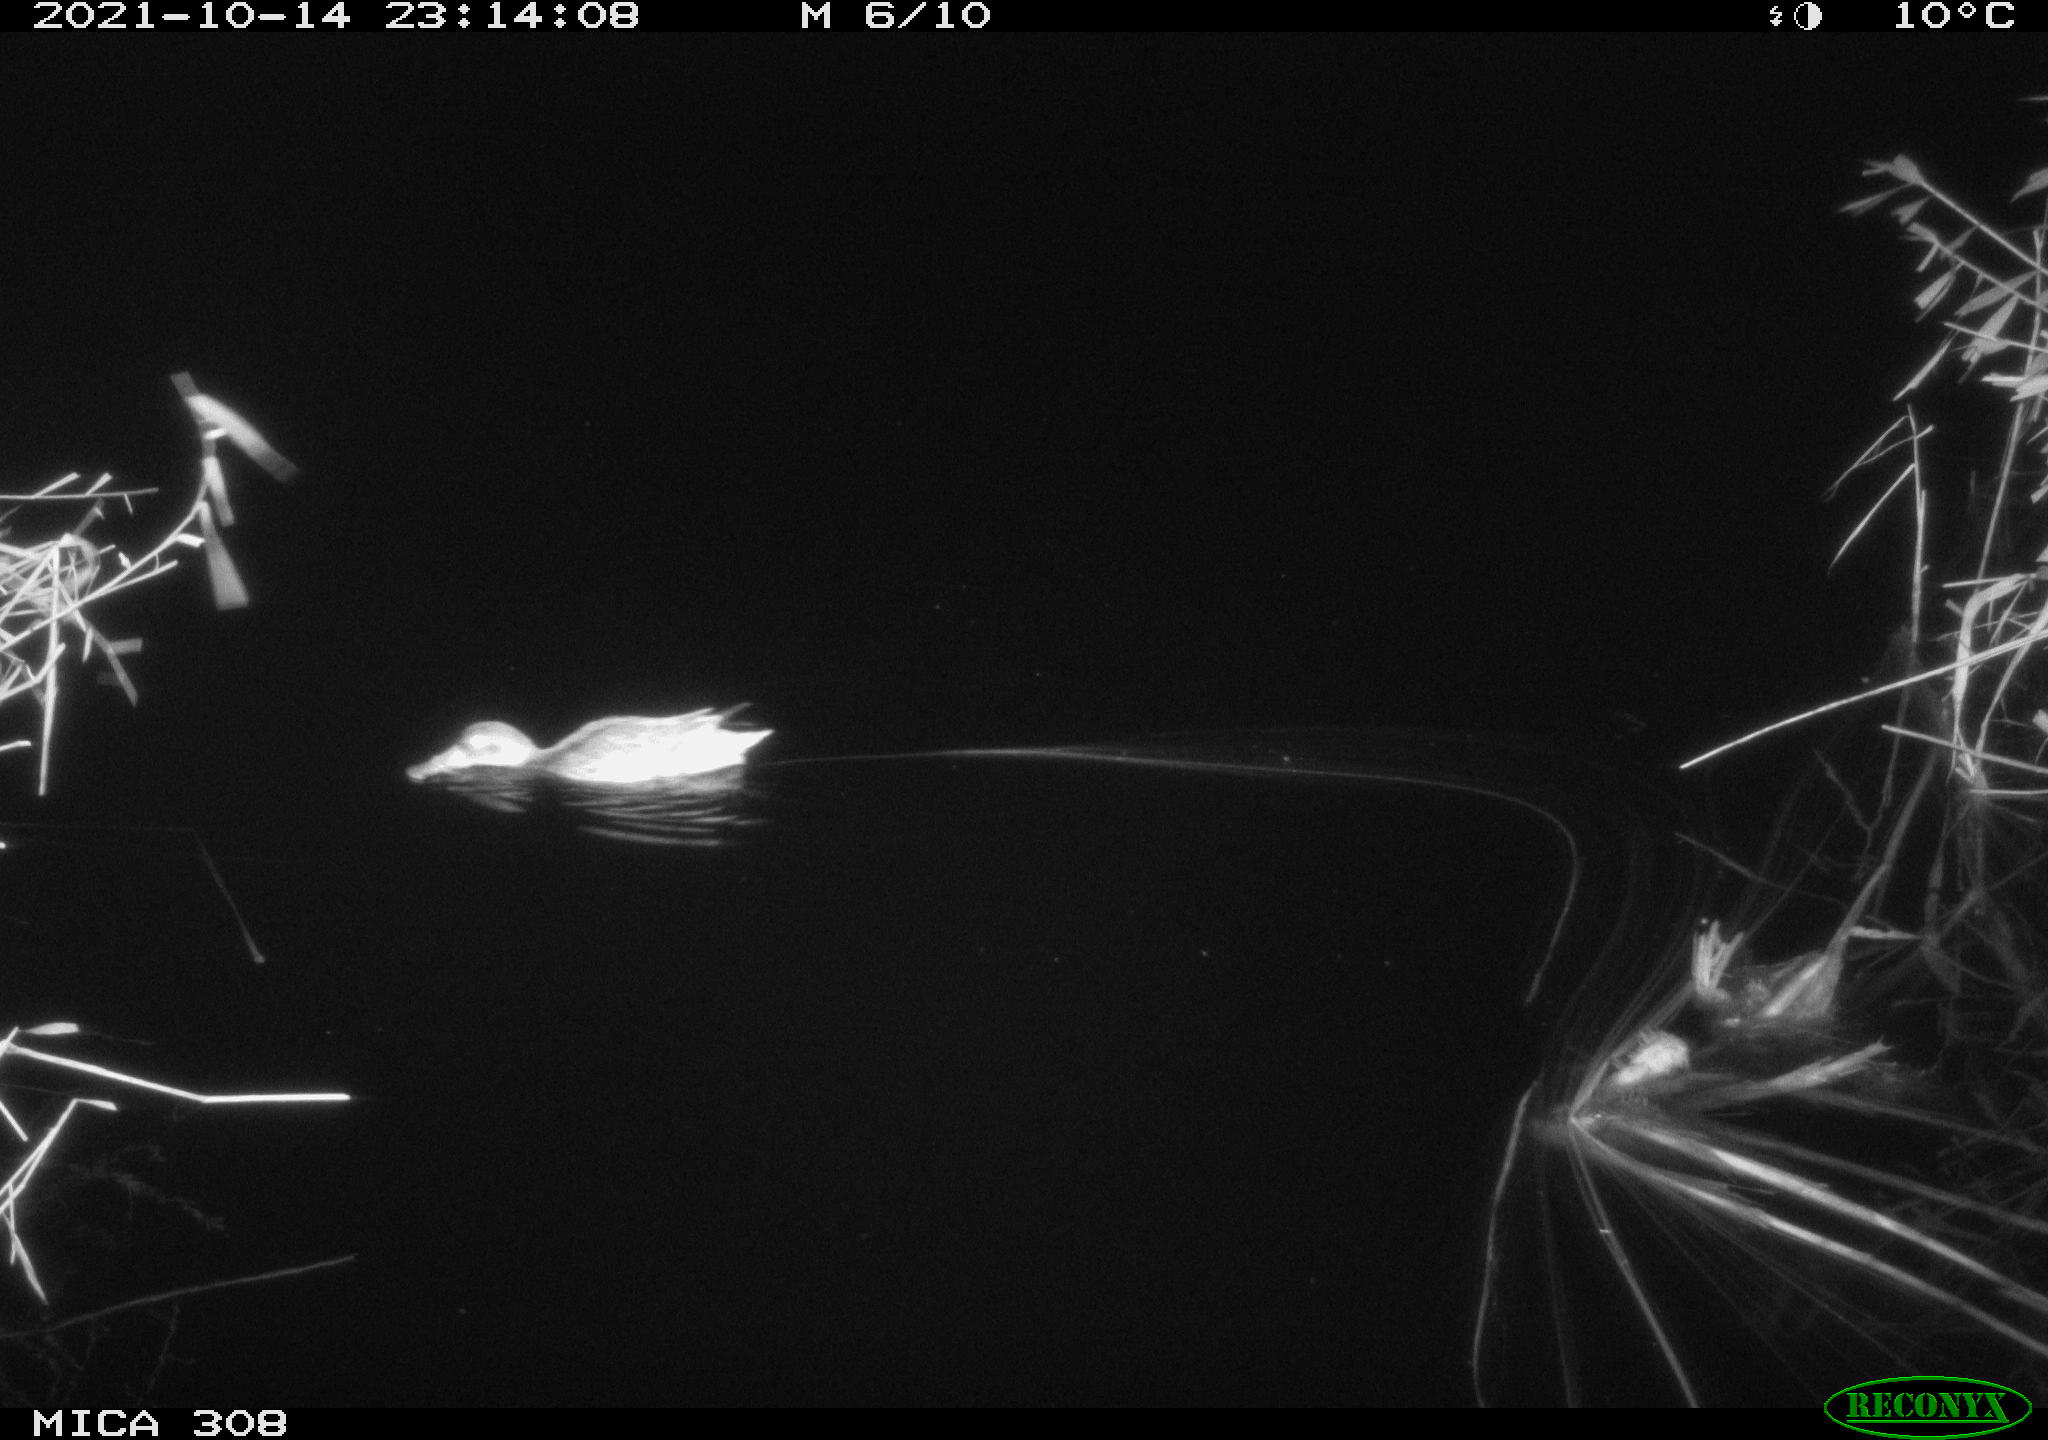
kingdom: Animalia
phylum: Chordata
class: Aves
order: Anseriformes
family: Anatidae
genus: Spatula
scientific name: Spatula clypeata
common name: Northern shoveler
